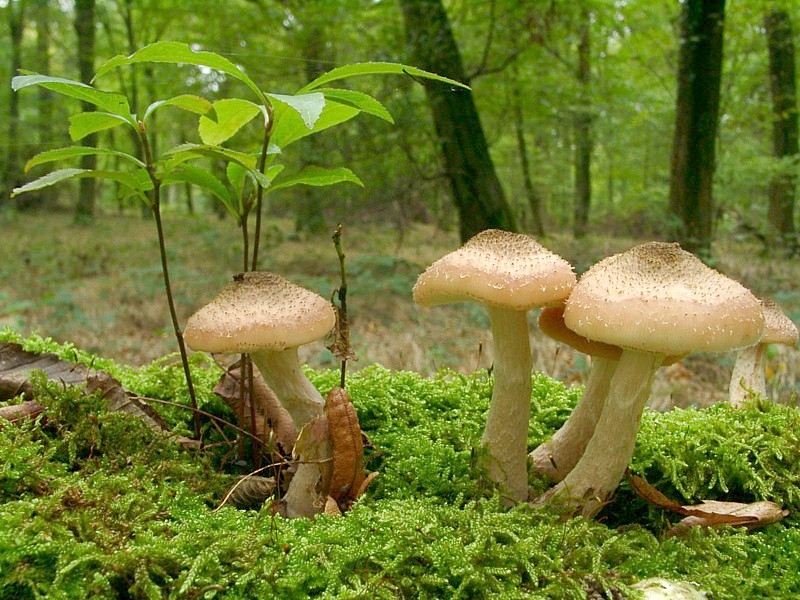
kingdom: Fungi
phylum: Basidiomycota
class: Agaricomycetes
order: Agaricales
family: Physalacriaceae
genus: Armillaria
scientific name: Armillaria ostoyae
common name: Dark honey fungus
